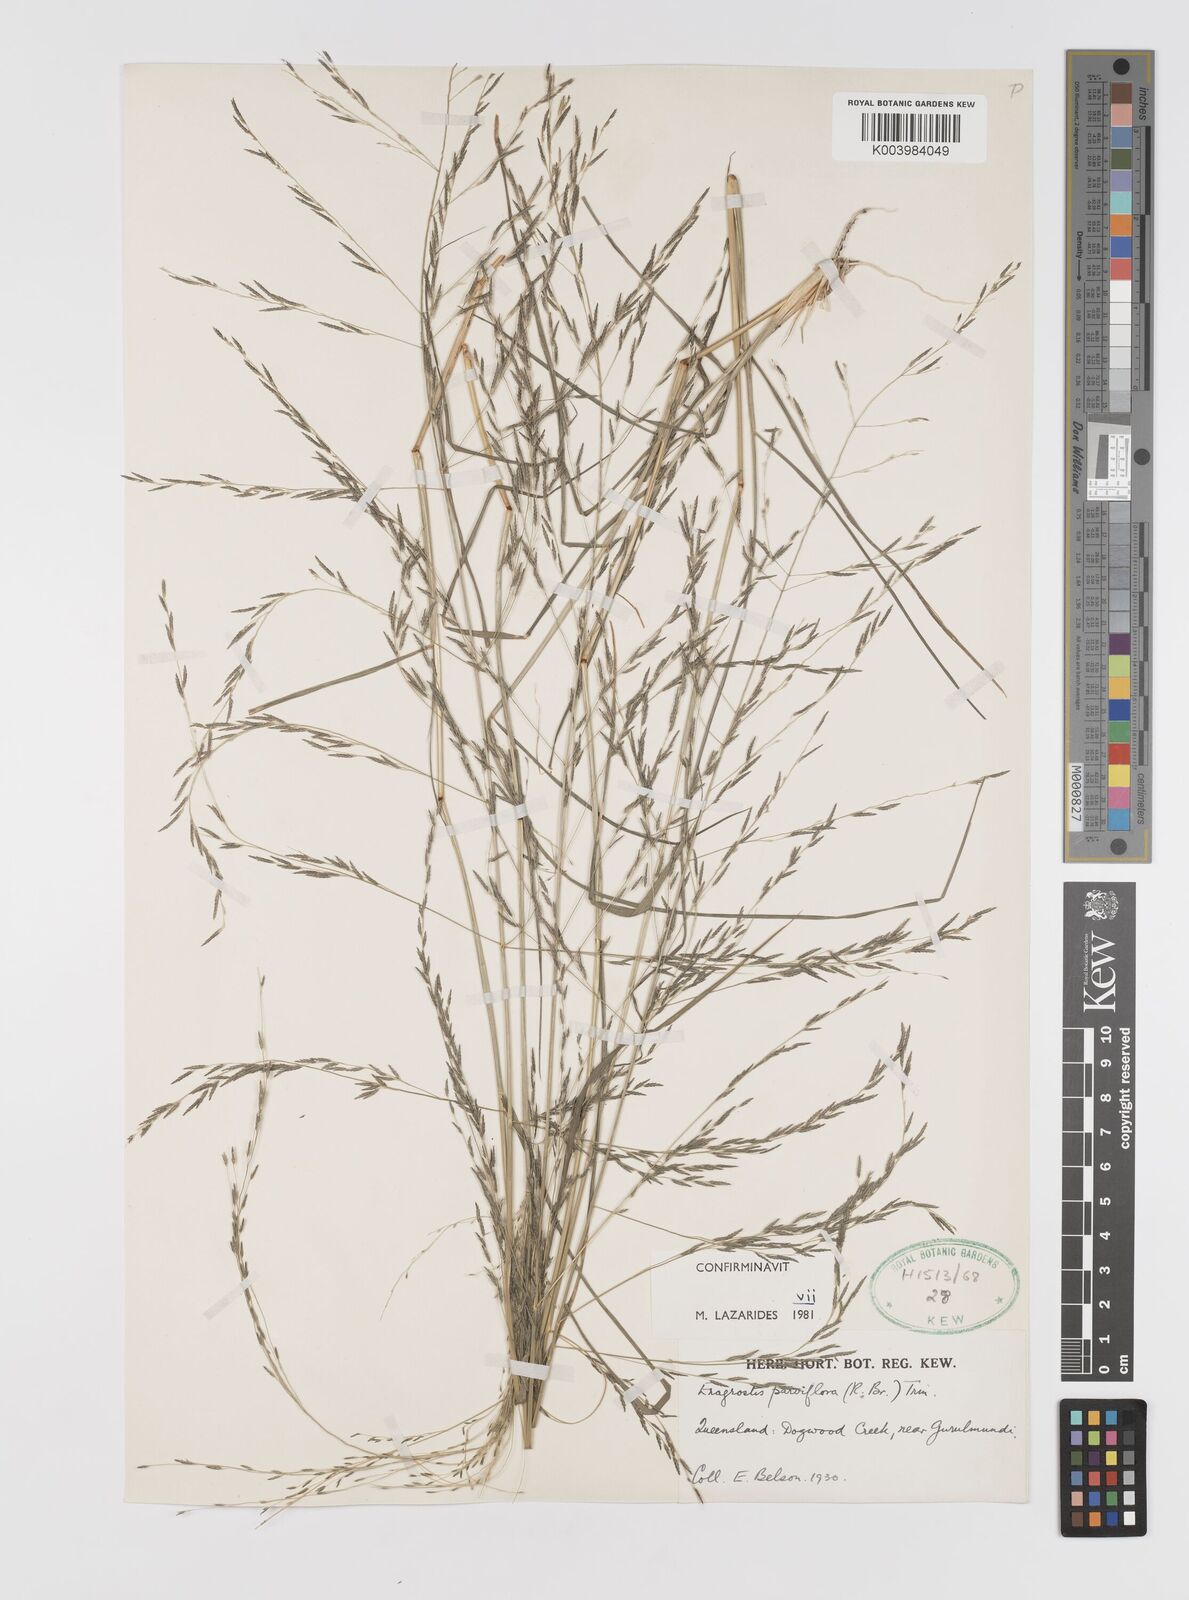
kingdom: Plantae
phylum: Tracheophyta
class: Liliopsida
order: Poales
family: Poaceae
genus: Eragrostis
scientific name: Eragrostis parviflora
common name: Weeping love-grass
